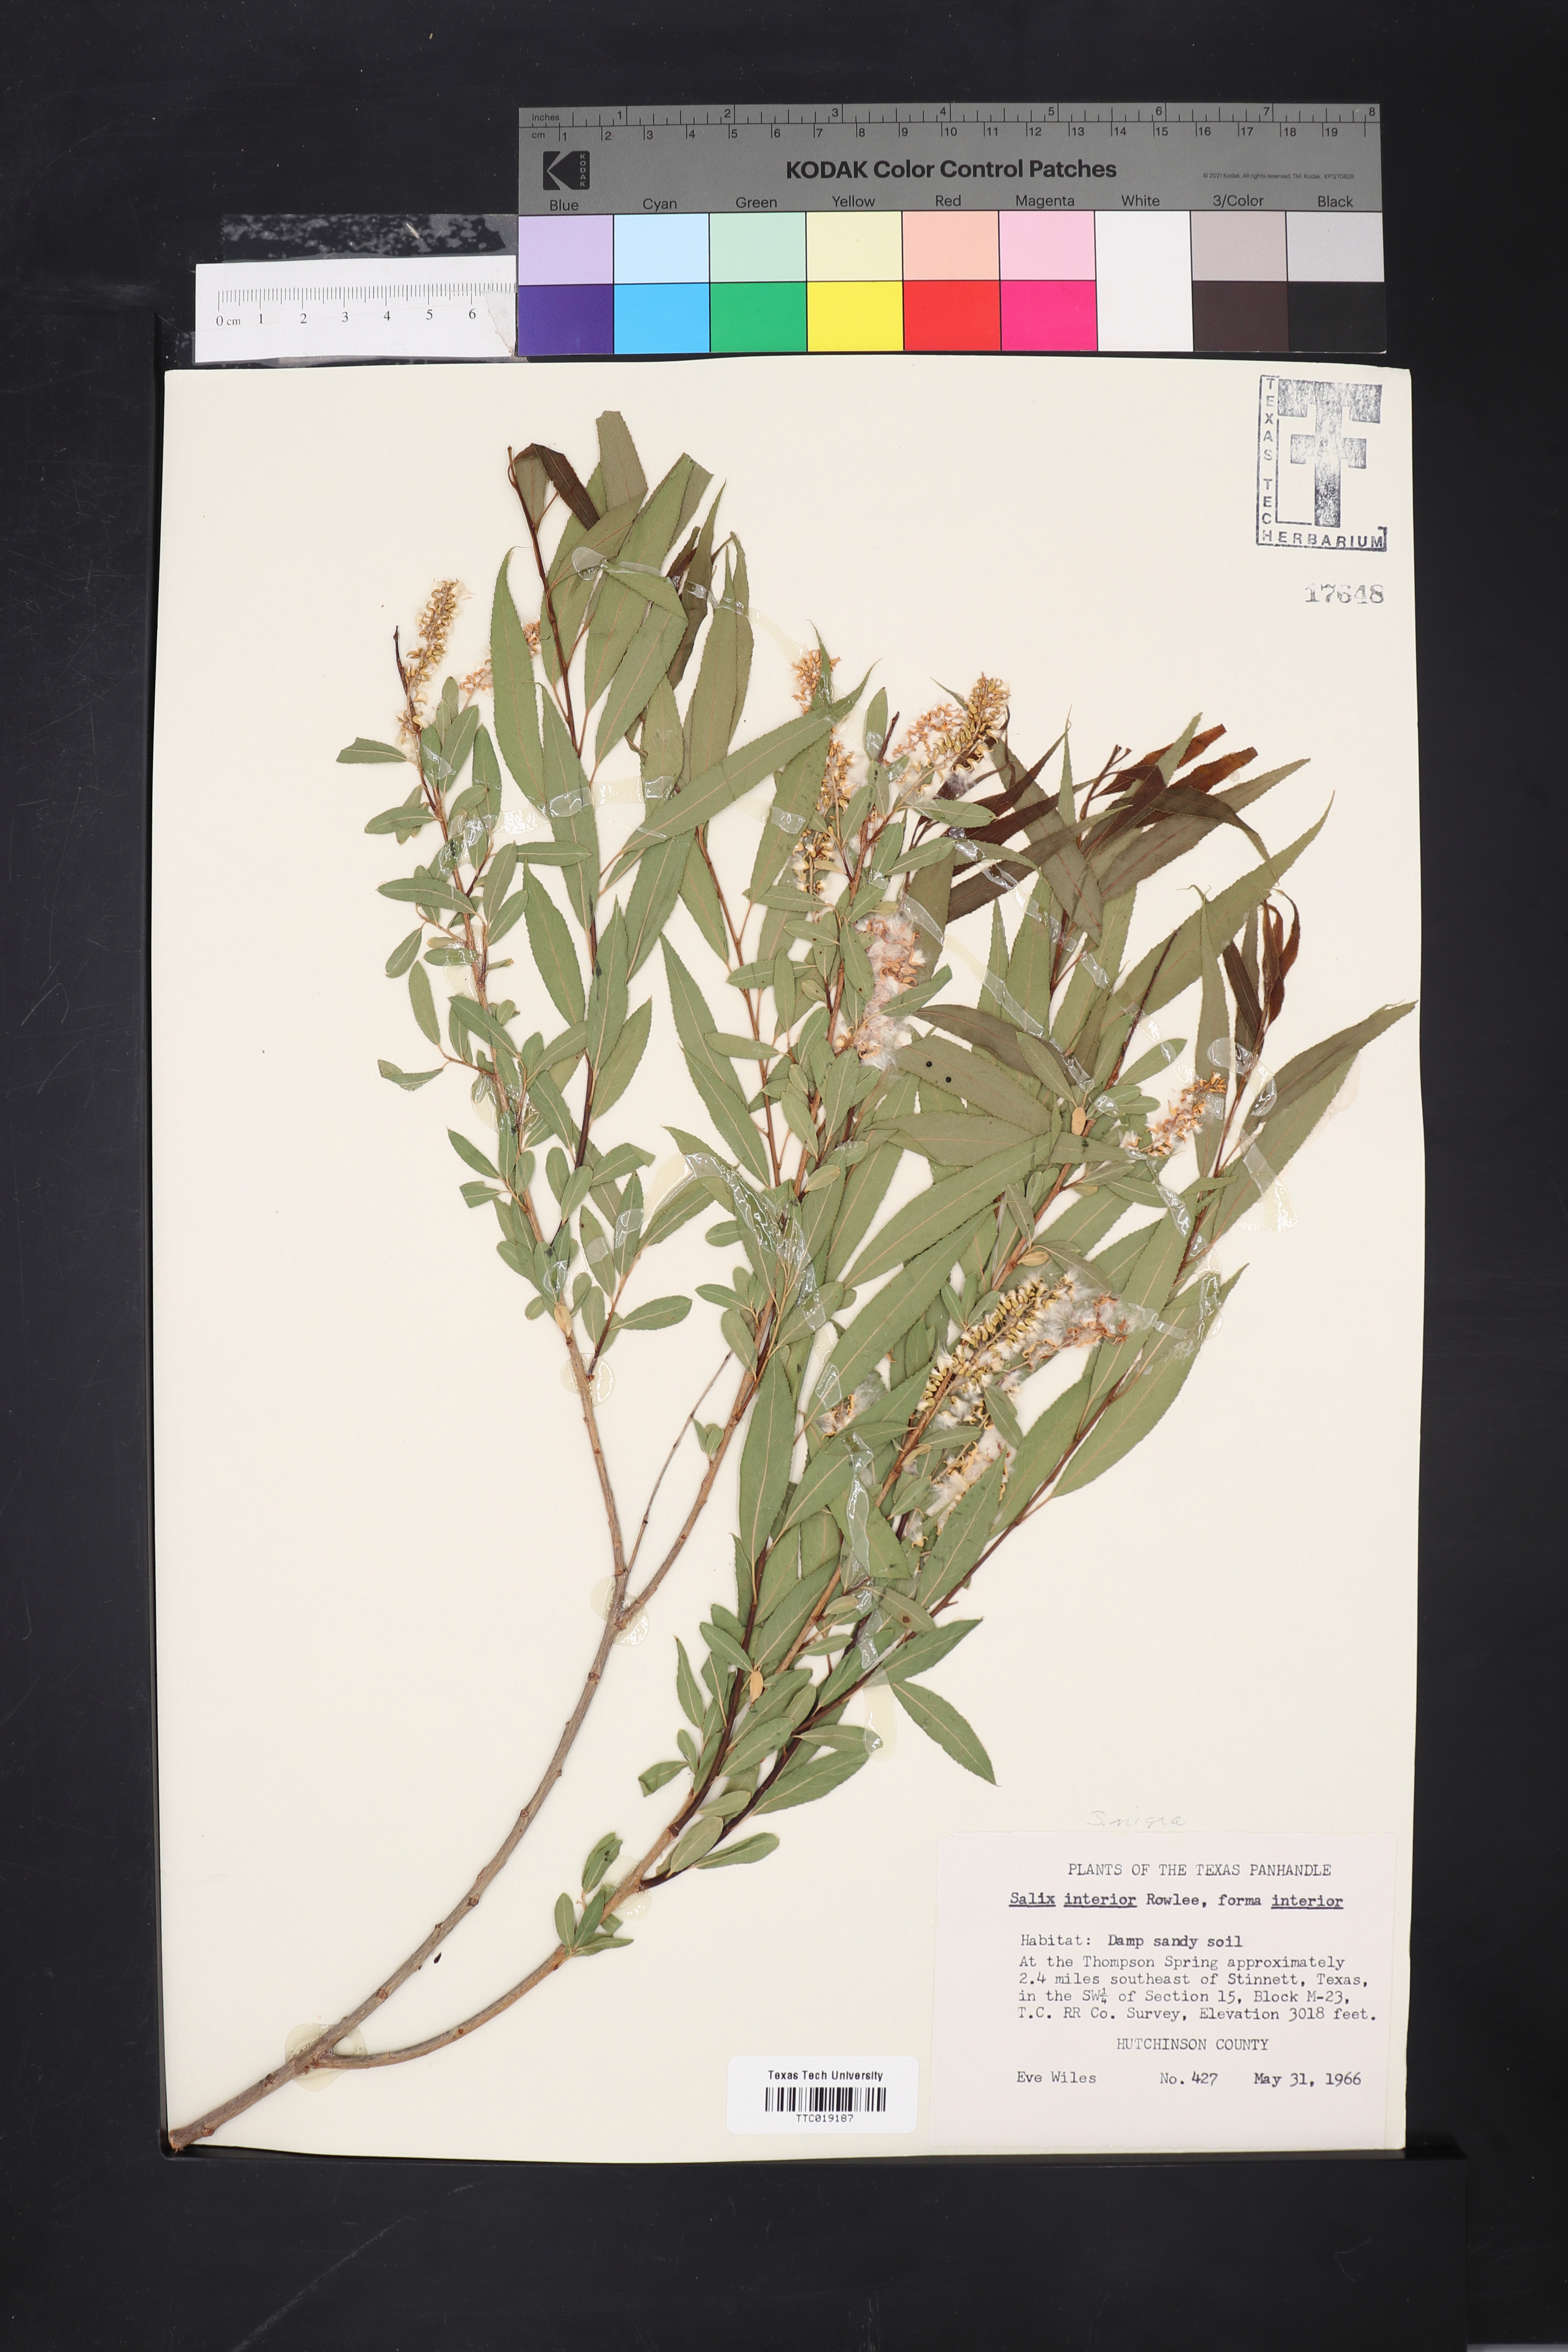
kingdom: Plantae
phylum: Tracheophyta
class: Magnoliopsida
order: Malpighiales
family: Salicaceae
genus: Salix
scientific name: Salix interior
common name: Sandbar willow
